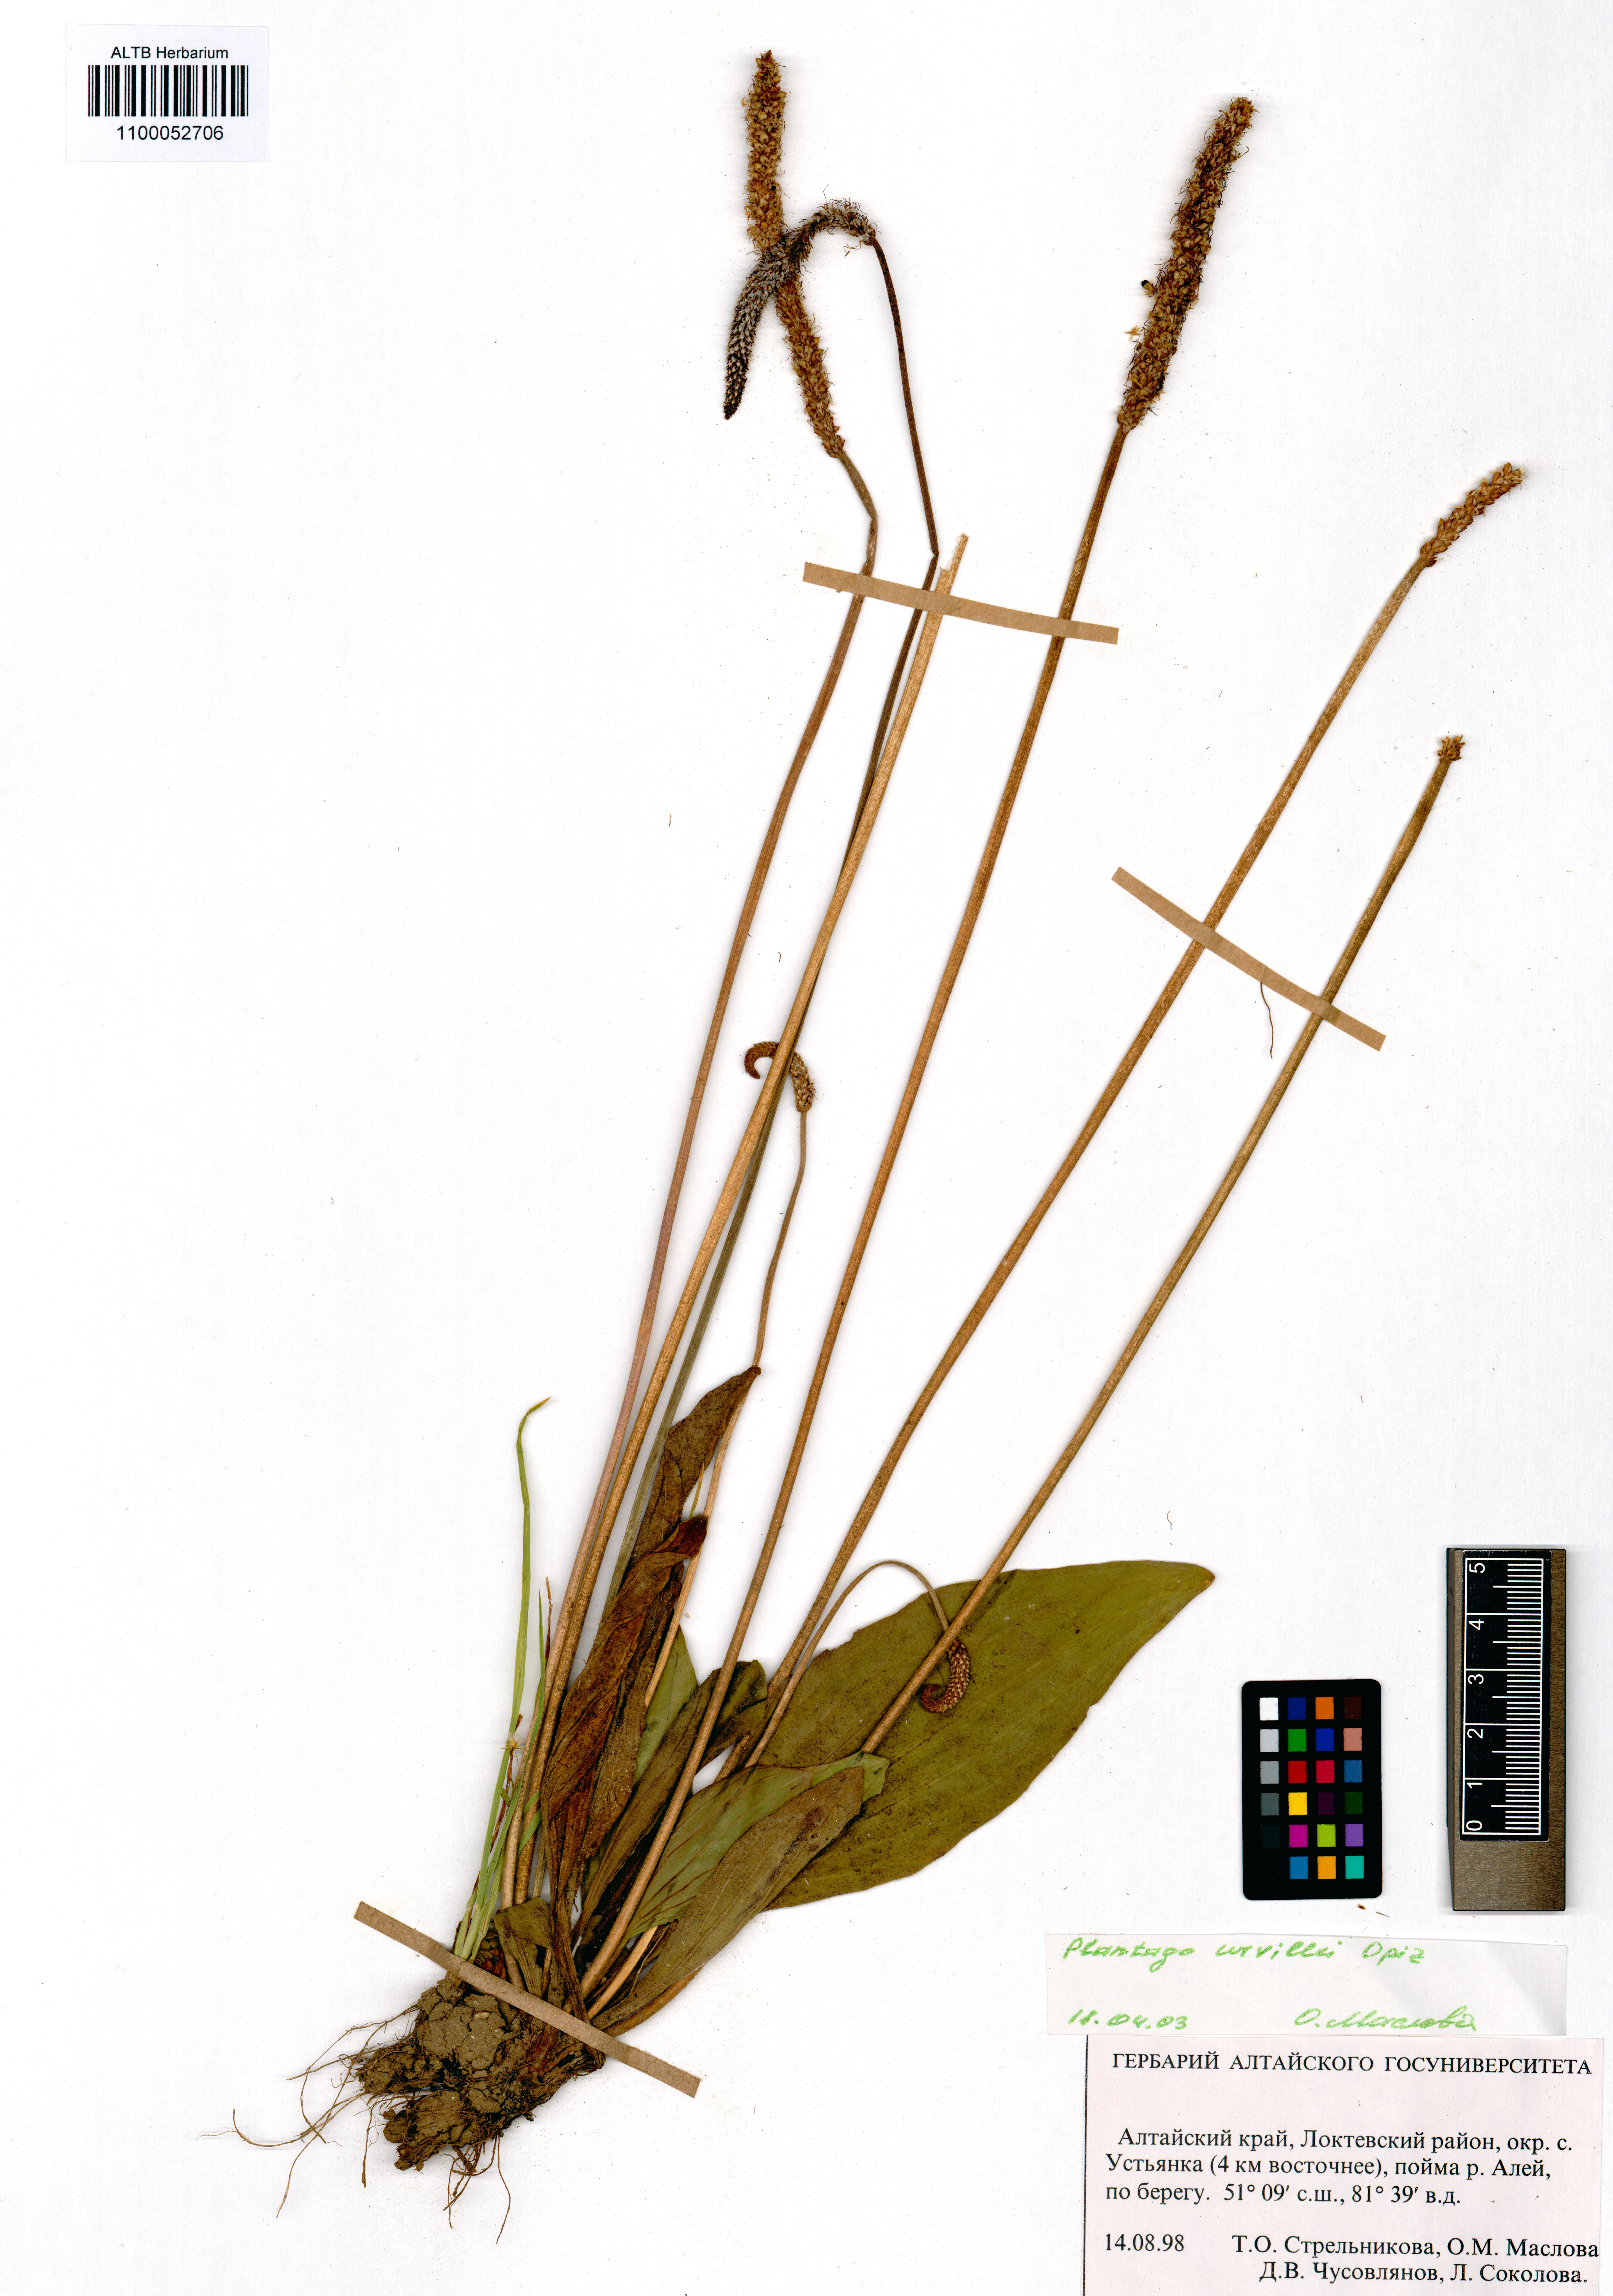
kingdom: Plantae
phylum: Tracheophyta
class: Magnoliopsida
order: Lamiales
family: Plantaginaceae
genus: Plantago
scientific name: Plantago urvillei
